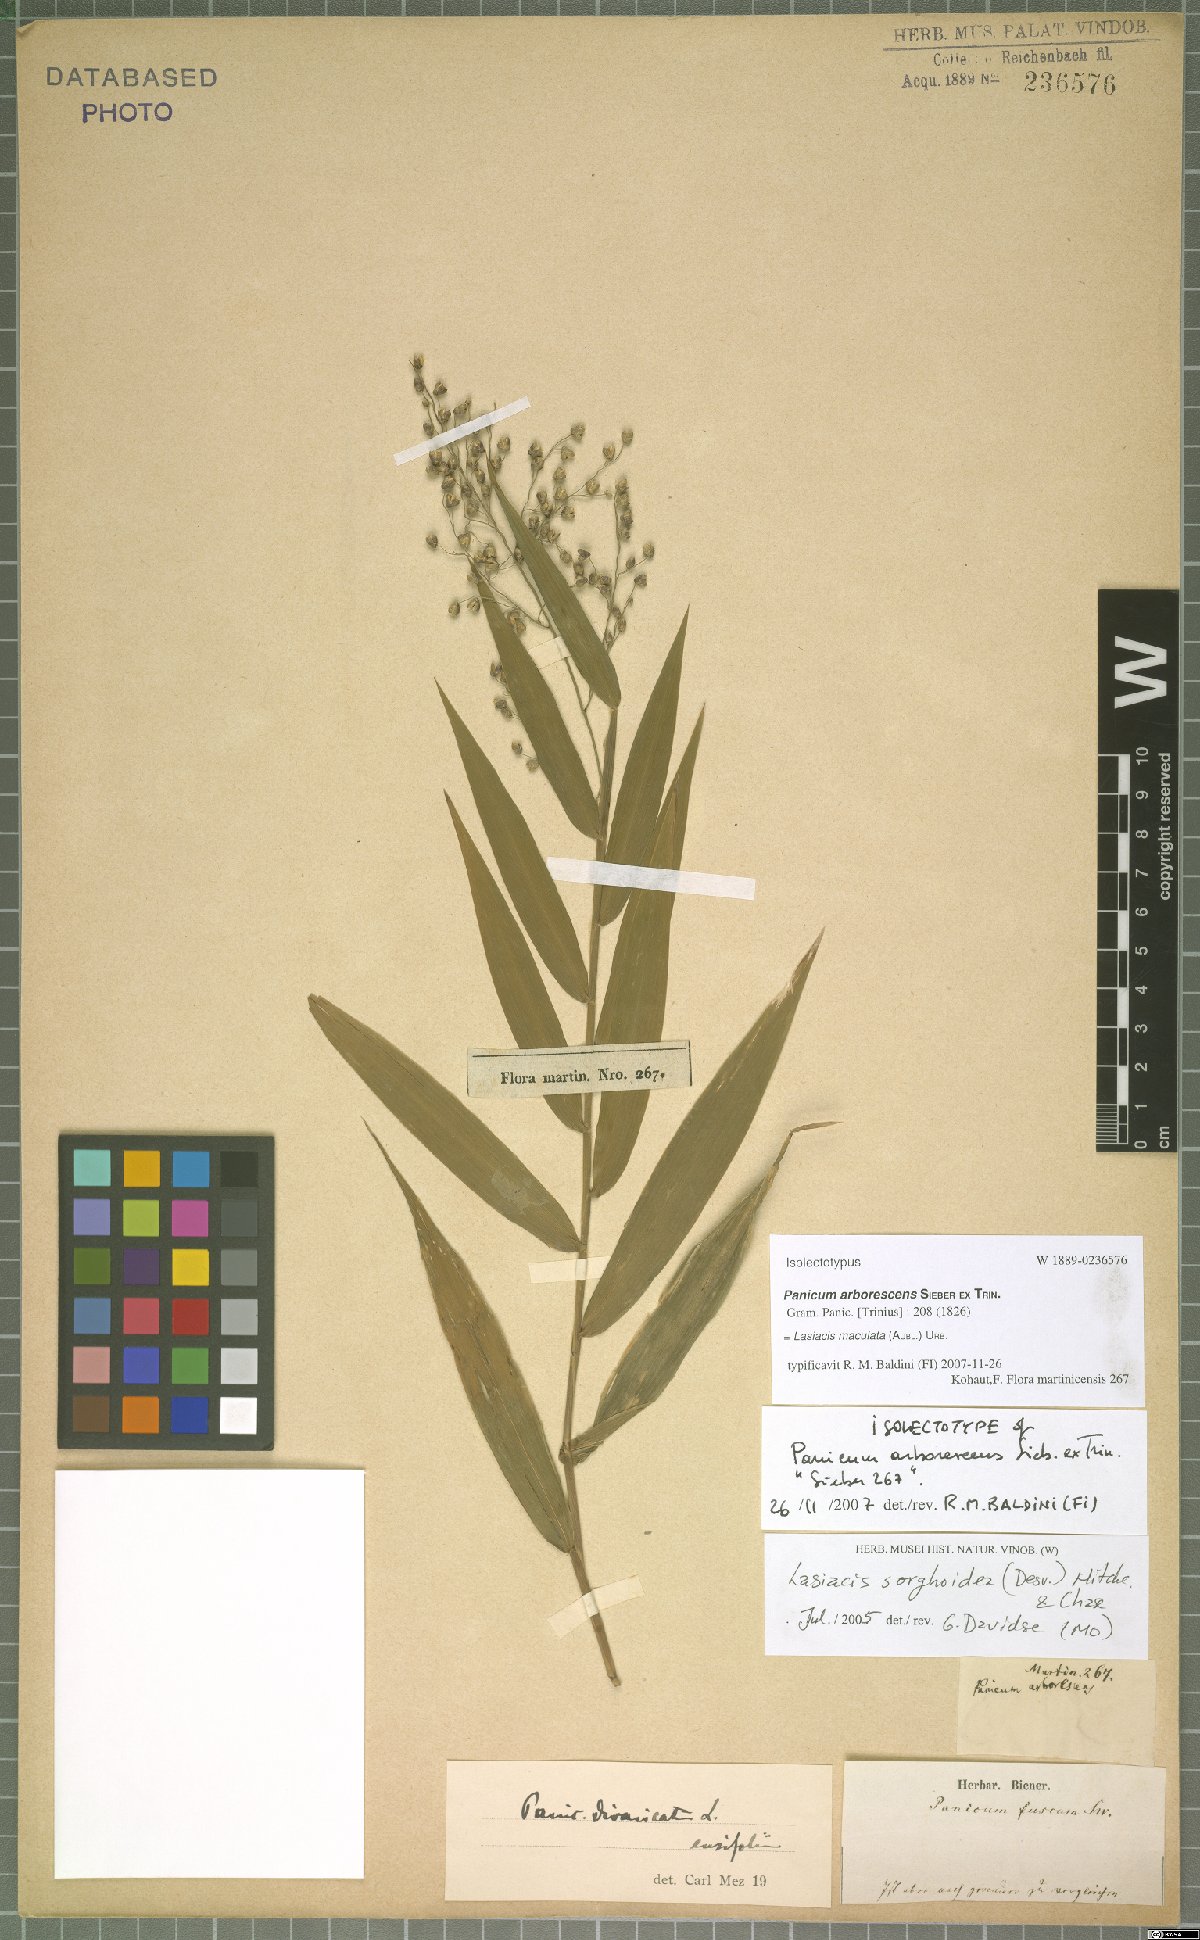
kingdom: Plantae
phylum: Tracheophyta
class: Liliopsida
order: Poales
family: Poaceae
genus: Lasiacis
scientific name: Lasiacis maculata
